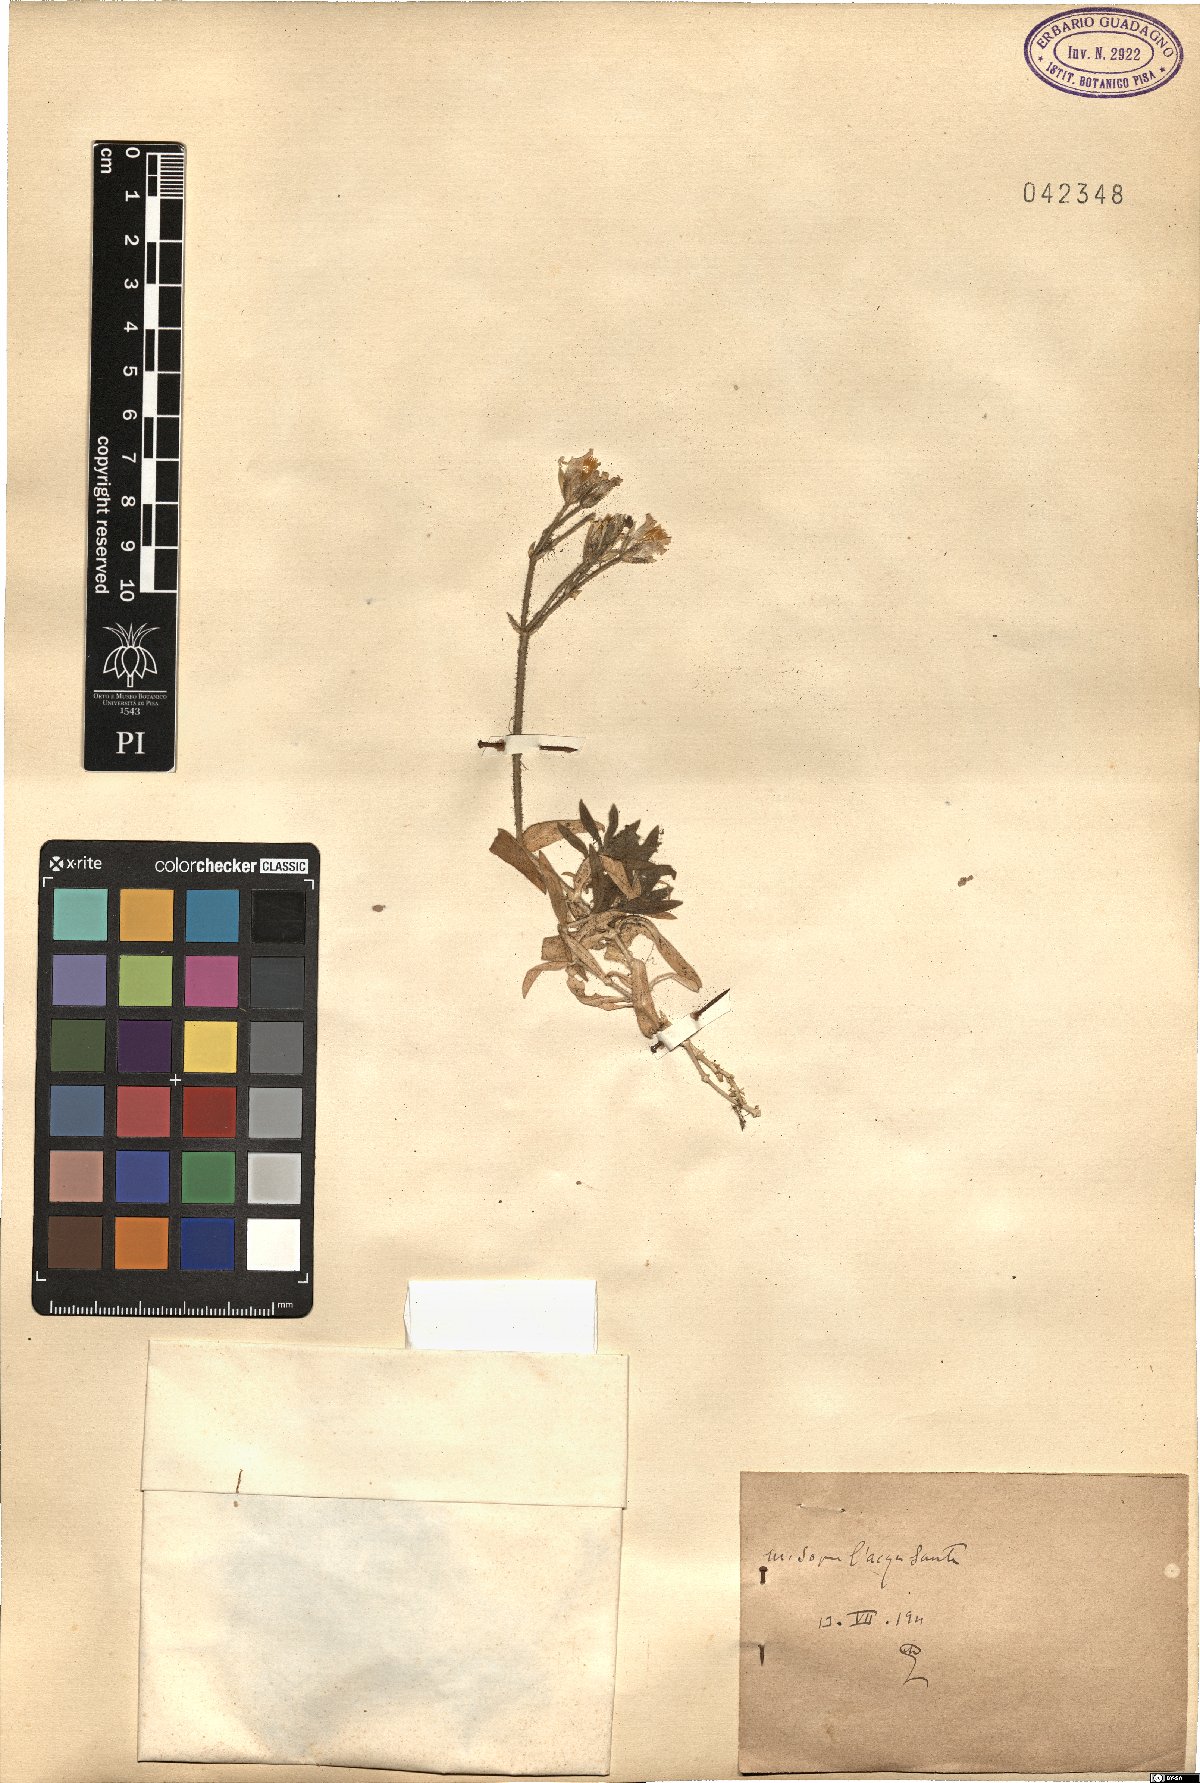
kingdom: Plantae
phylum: Tracheophyta
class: Magnoliopsida
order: Caryophyllales
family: Caryophyllaceae
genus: Cerastium
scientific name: Cerastium
